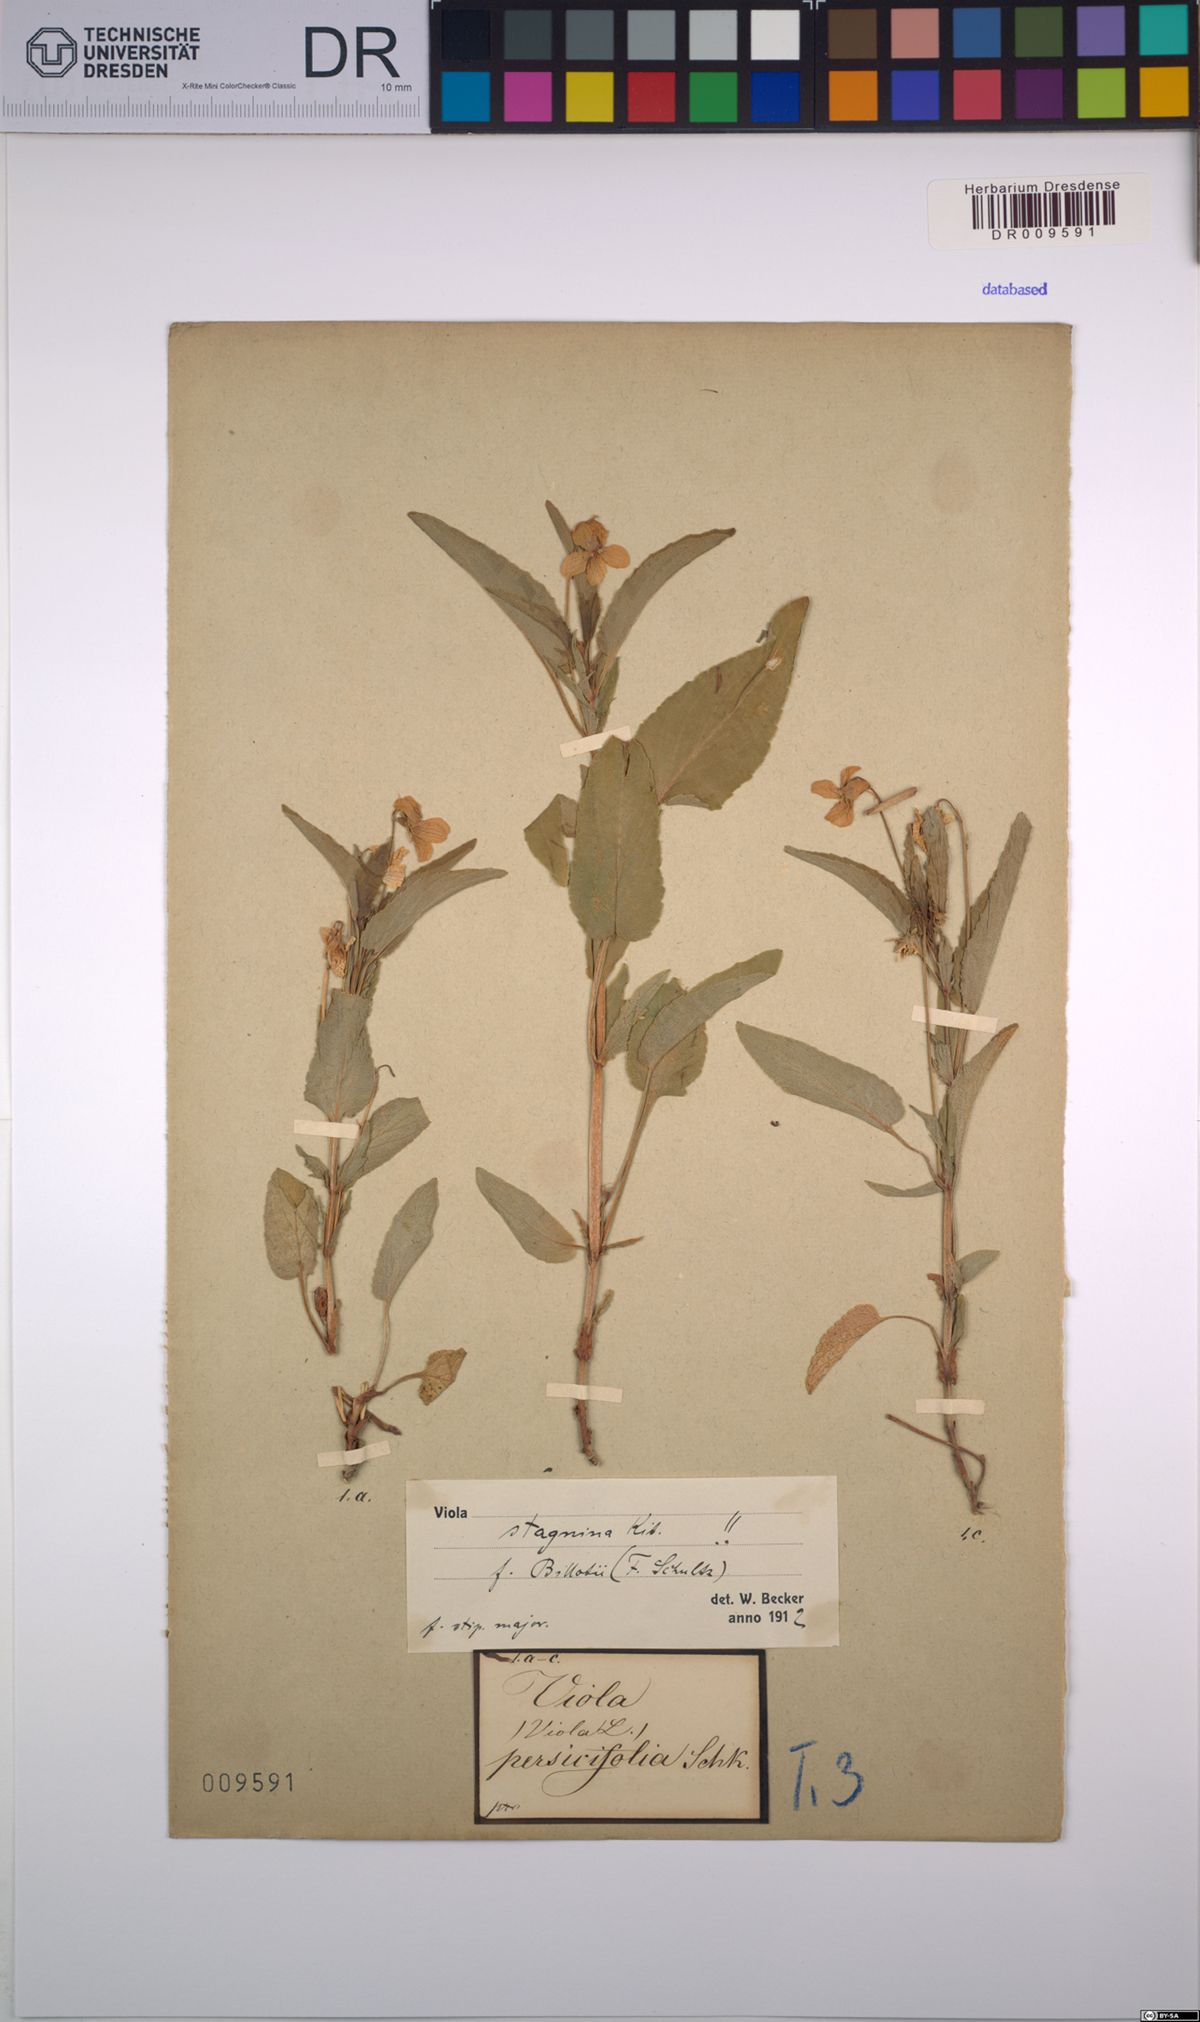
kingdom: Plantae
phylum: Tracheophyta
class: Magnoliopsida
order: Malpighiales
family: Violaceae
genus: Viola
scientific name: Viola stagnina
